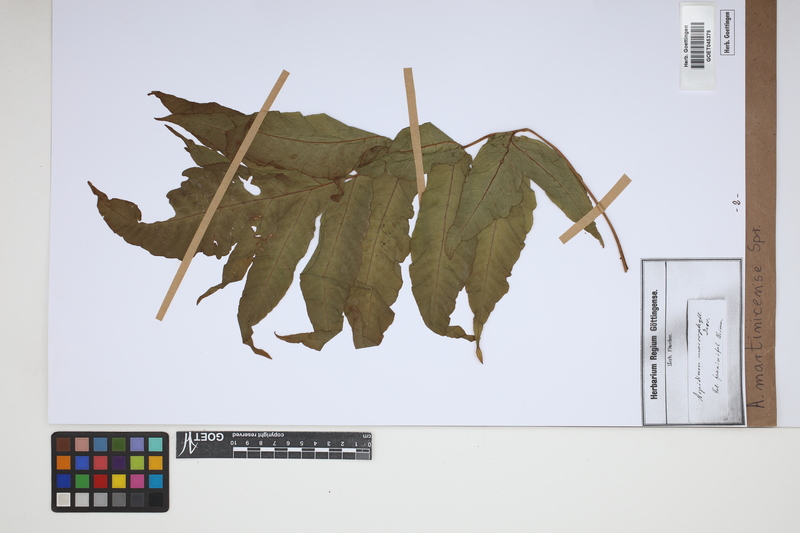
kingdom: Plantae
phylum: Tracheophyta
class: Polypodiopsida
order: Polypodiales
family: Tectariaceae
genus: Tectaria
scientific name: Tectaria incisa
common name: Incised halberd fern
